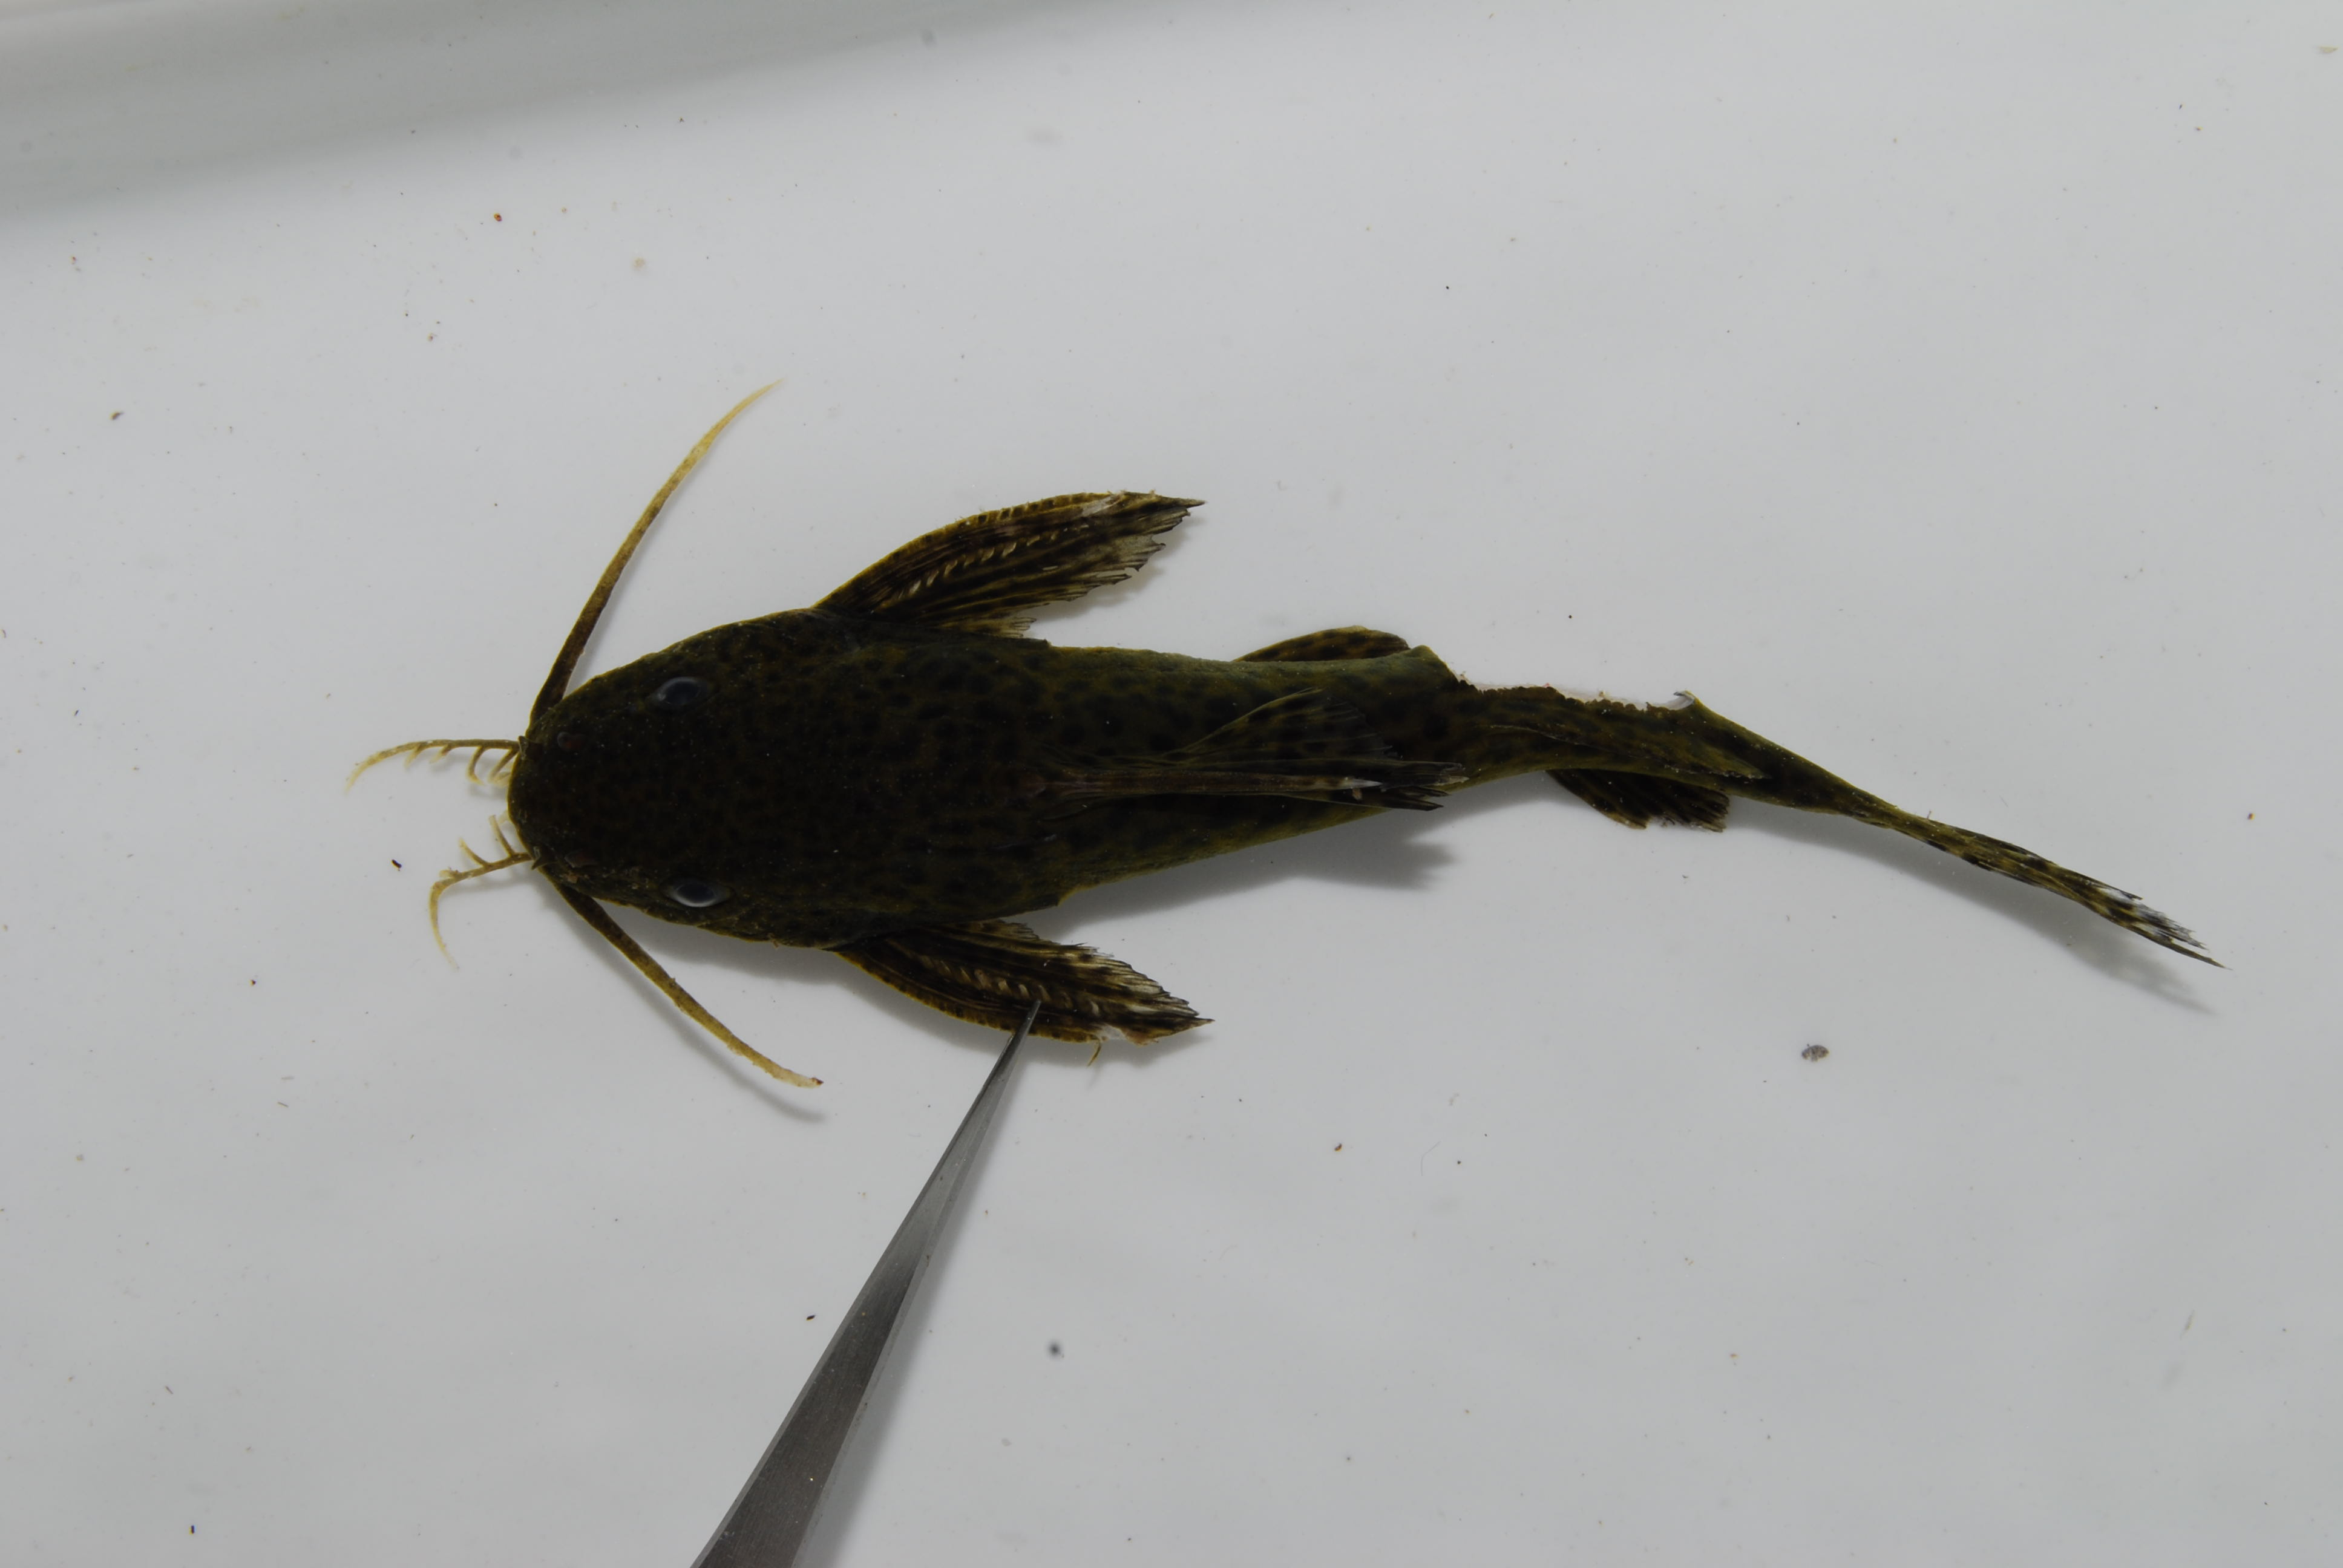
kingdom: Animalia
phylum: Chordata
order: Siluriformes
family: Mochokidae
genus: Synodontis
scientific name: Synodontis nigromaculatus
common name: Blackspotted squeaker
